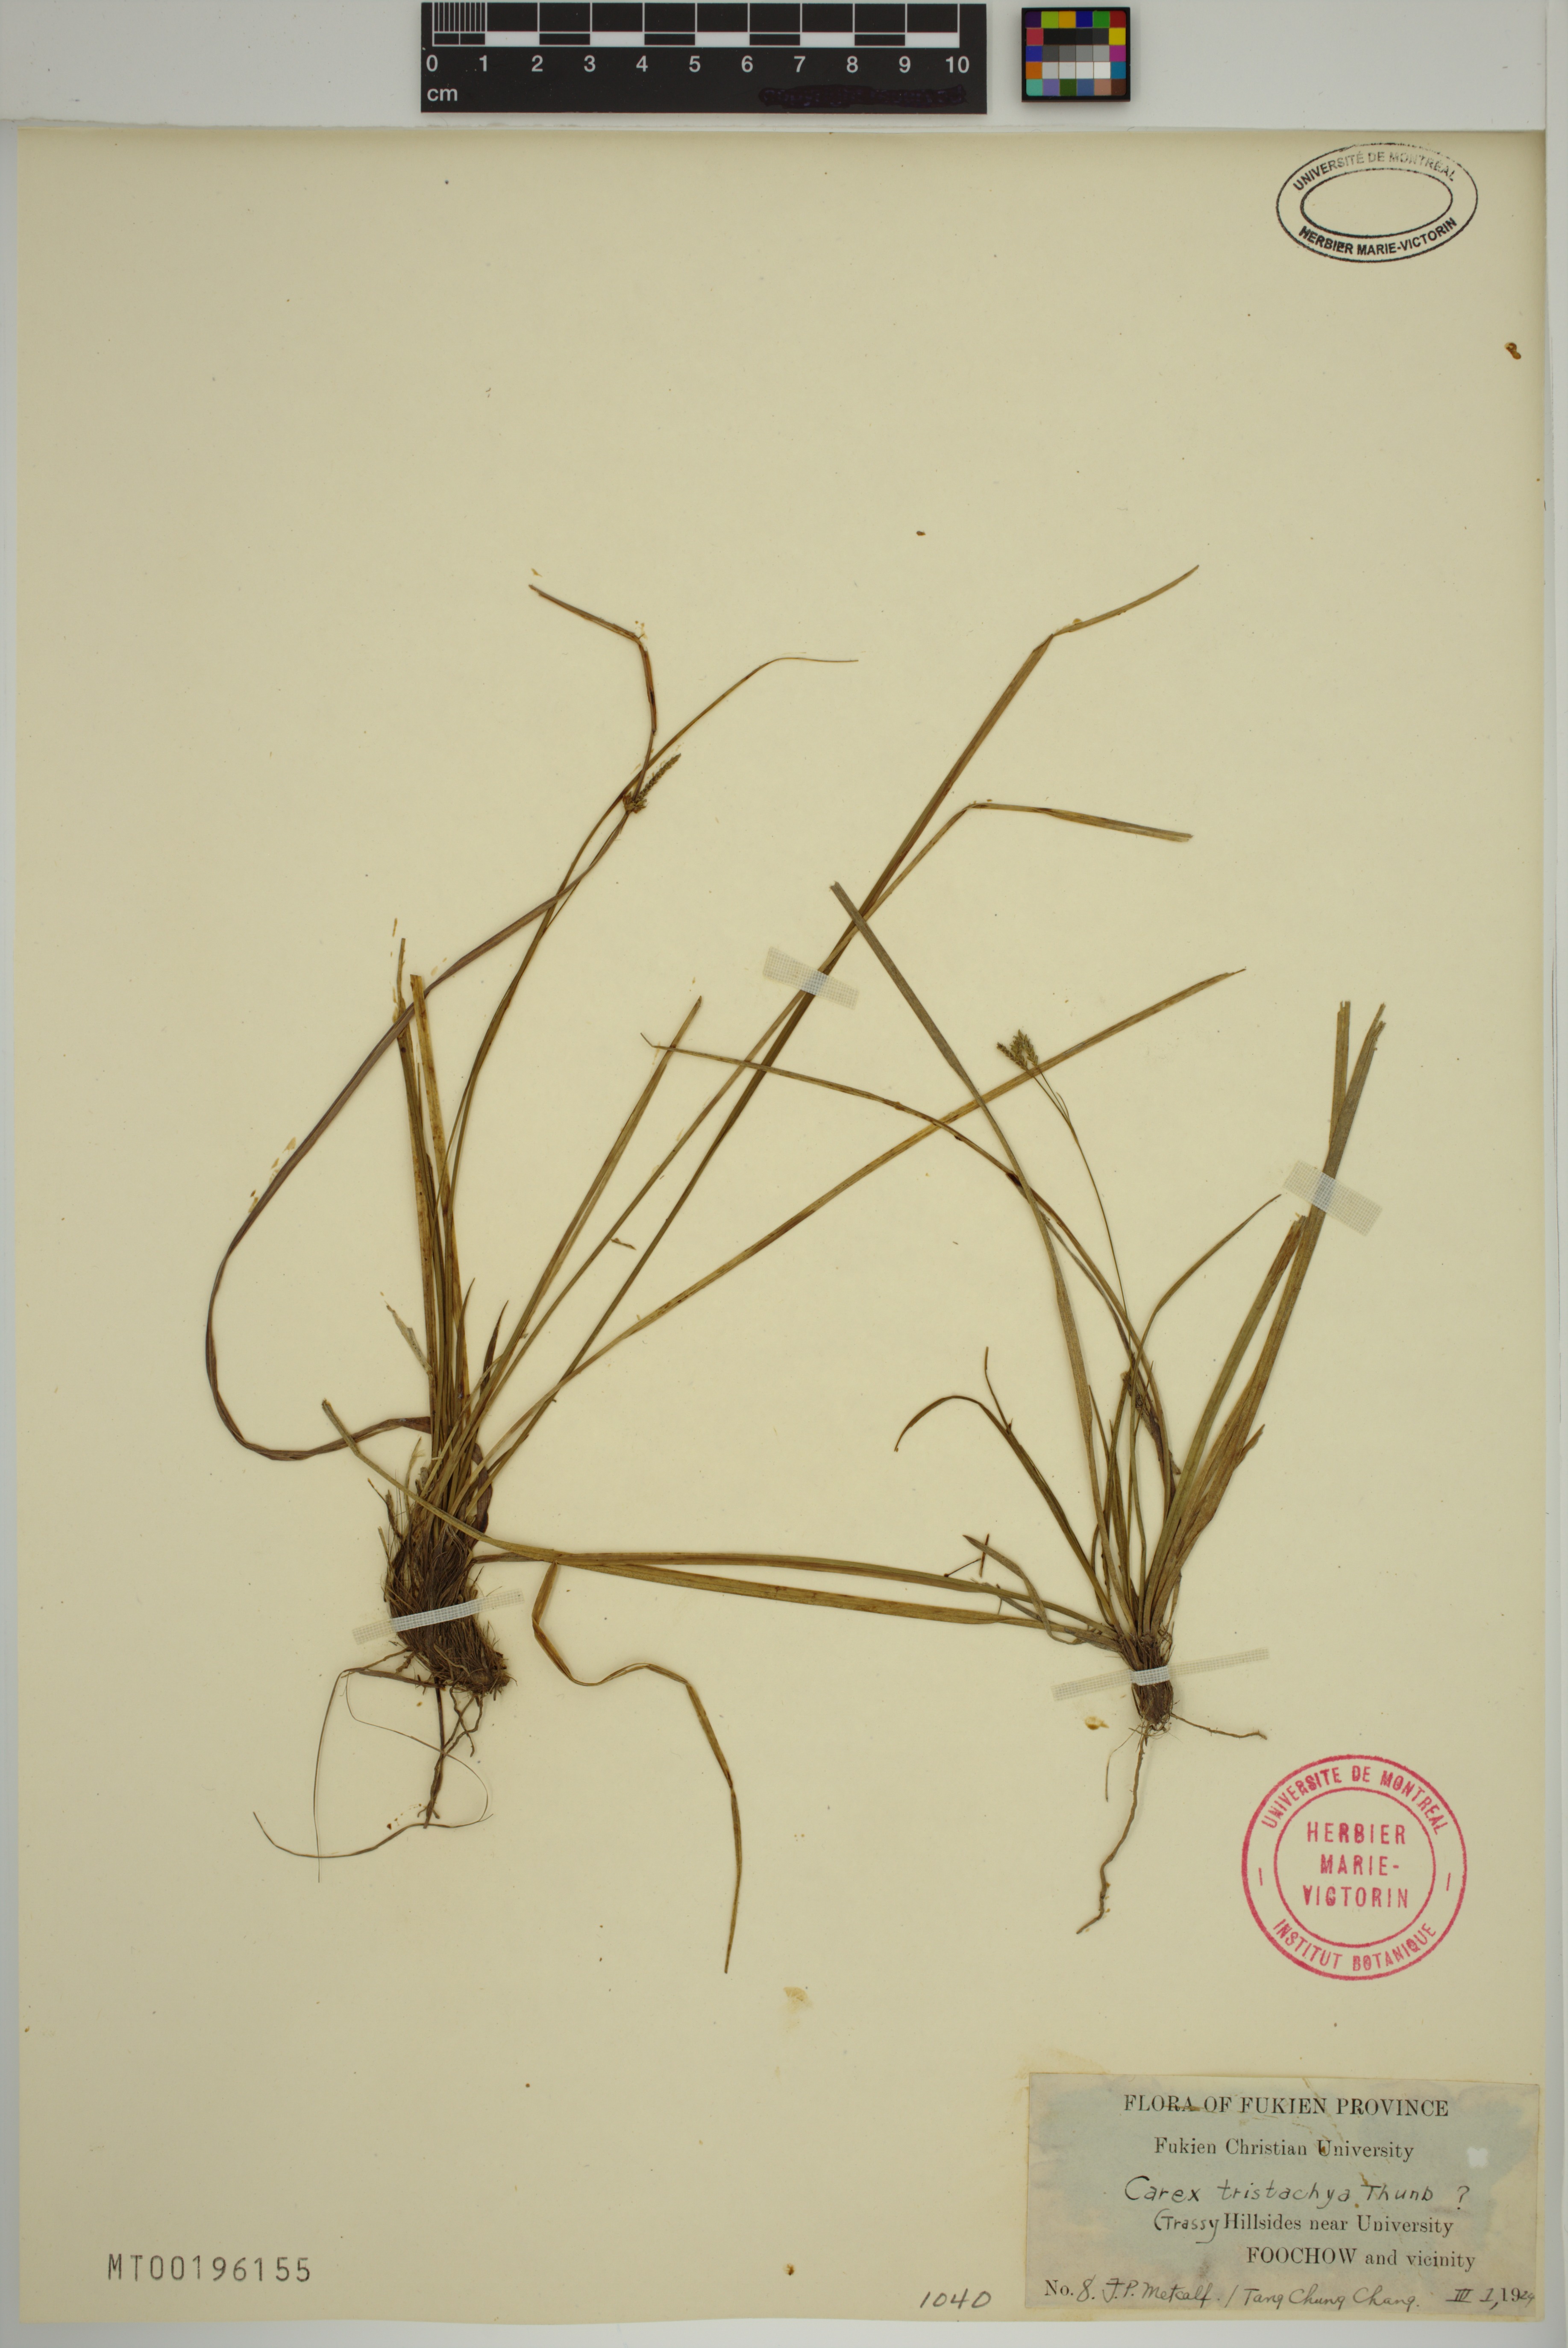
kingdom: Plantae
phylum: Tracheophyta
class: Liliopsida
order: Poales
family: Cyperaceae
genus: Carex
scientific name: Carex tristachya
